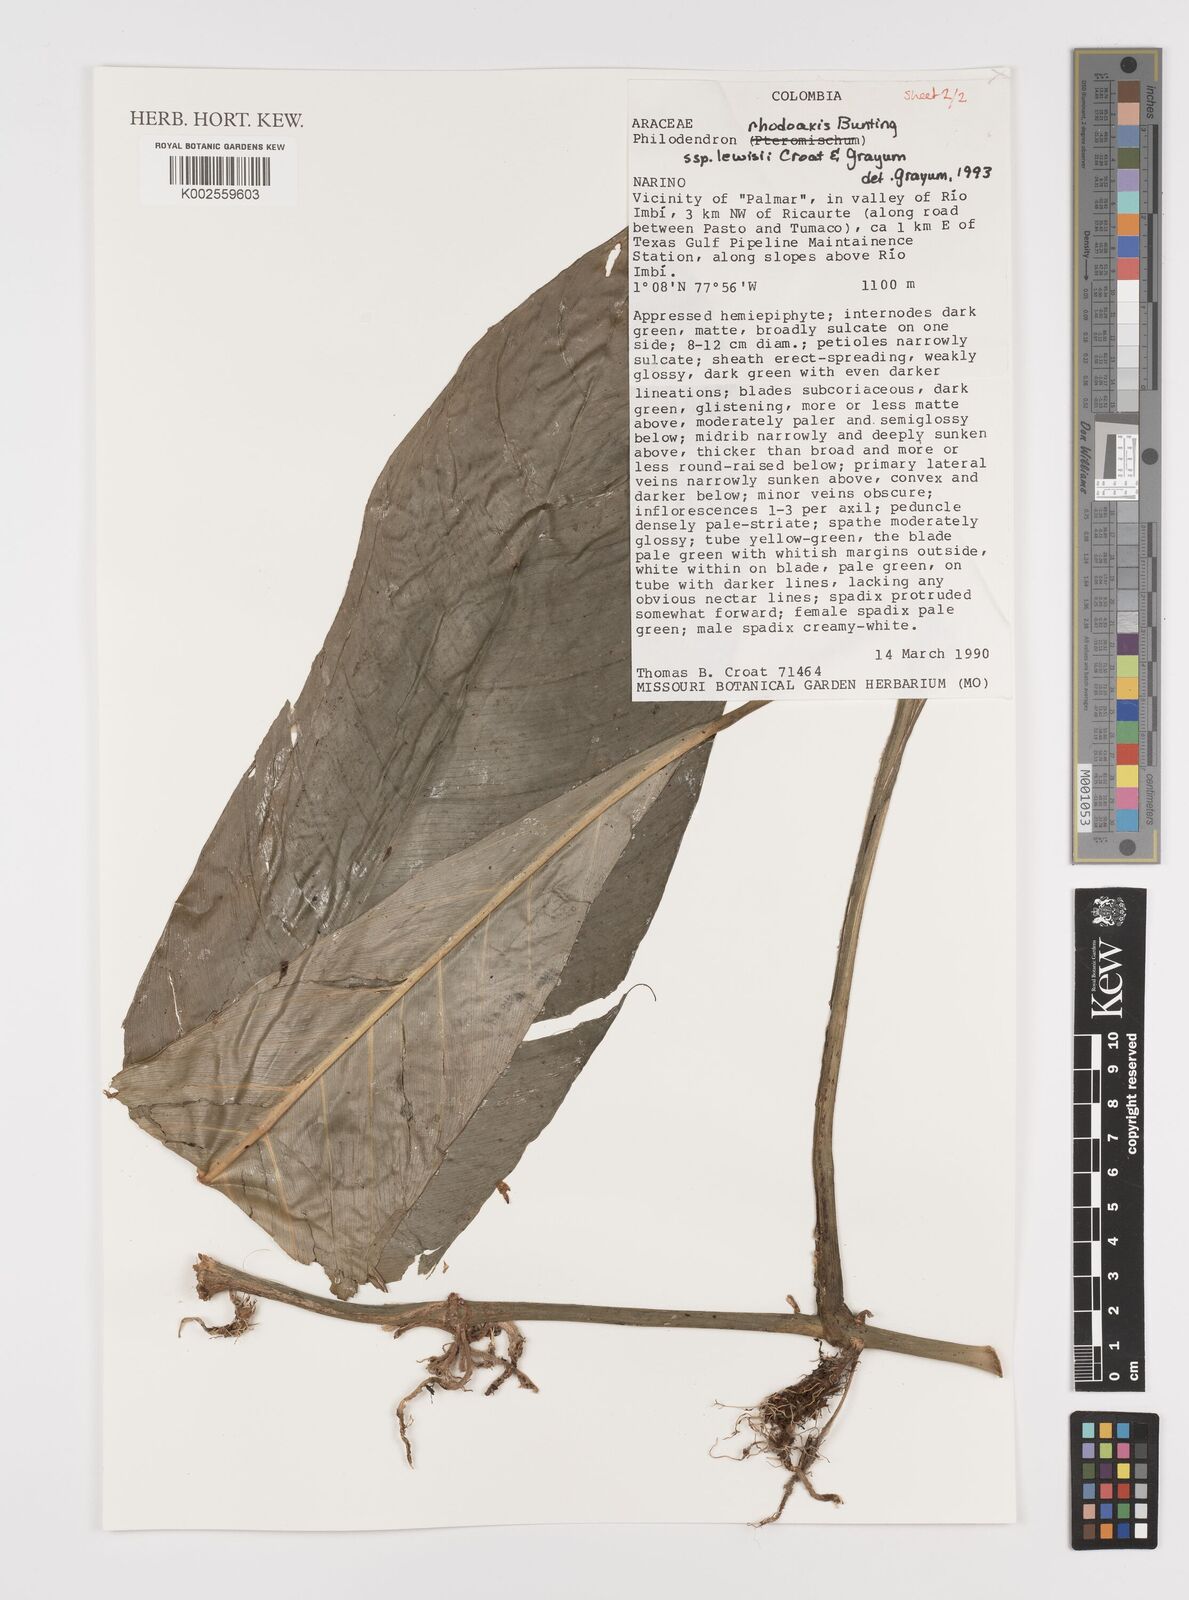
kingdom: Plantae
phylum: Tracheophyta
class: Liliopsida
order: Alismatales
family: Araceae
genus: Philodendron
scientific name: Philodendron rhodoaxis
